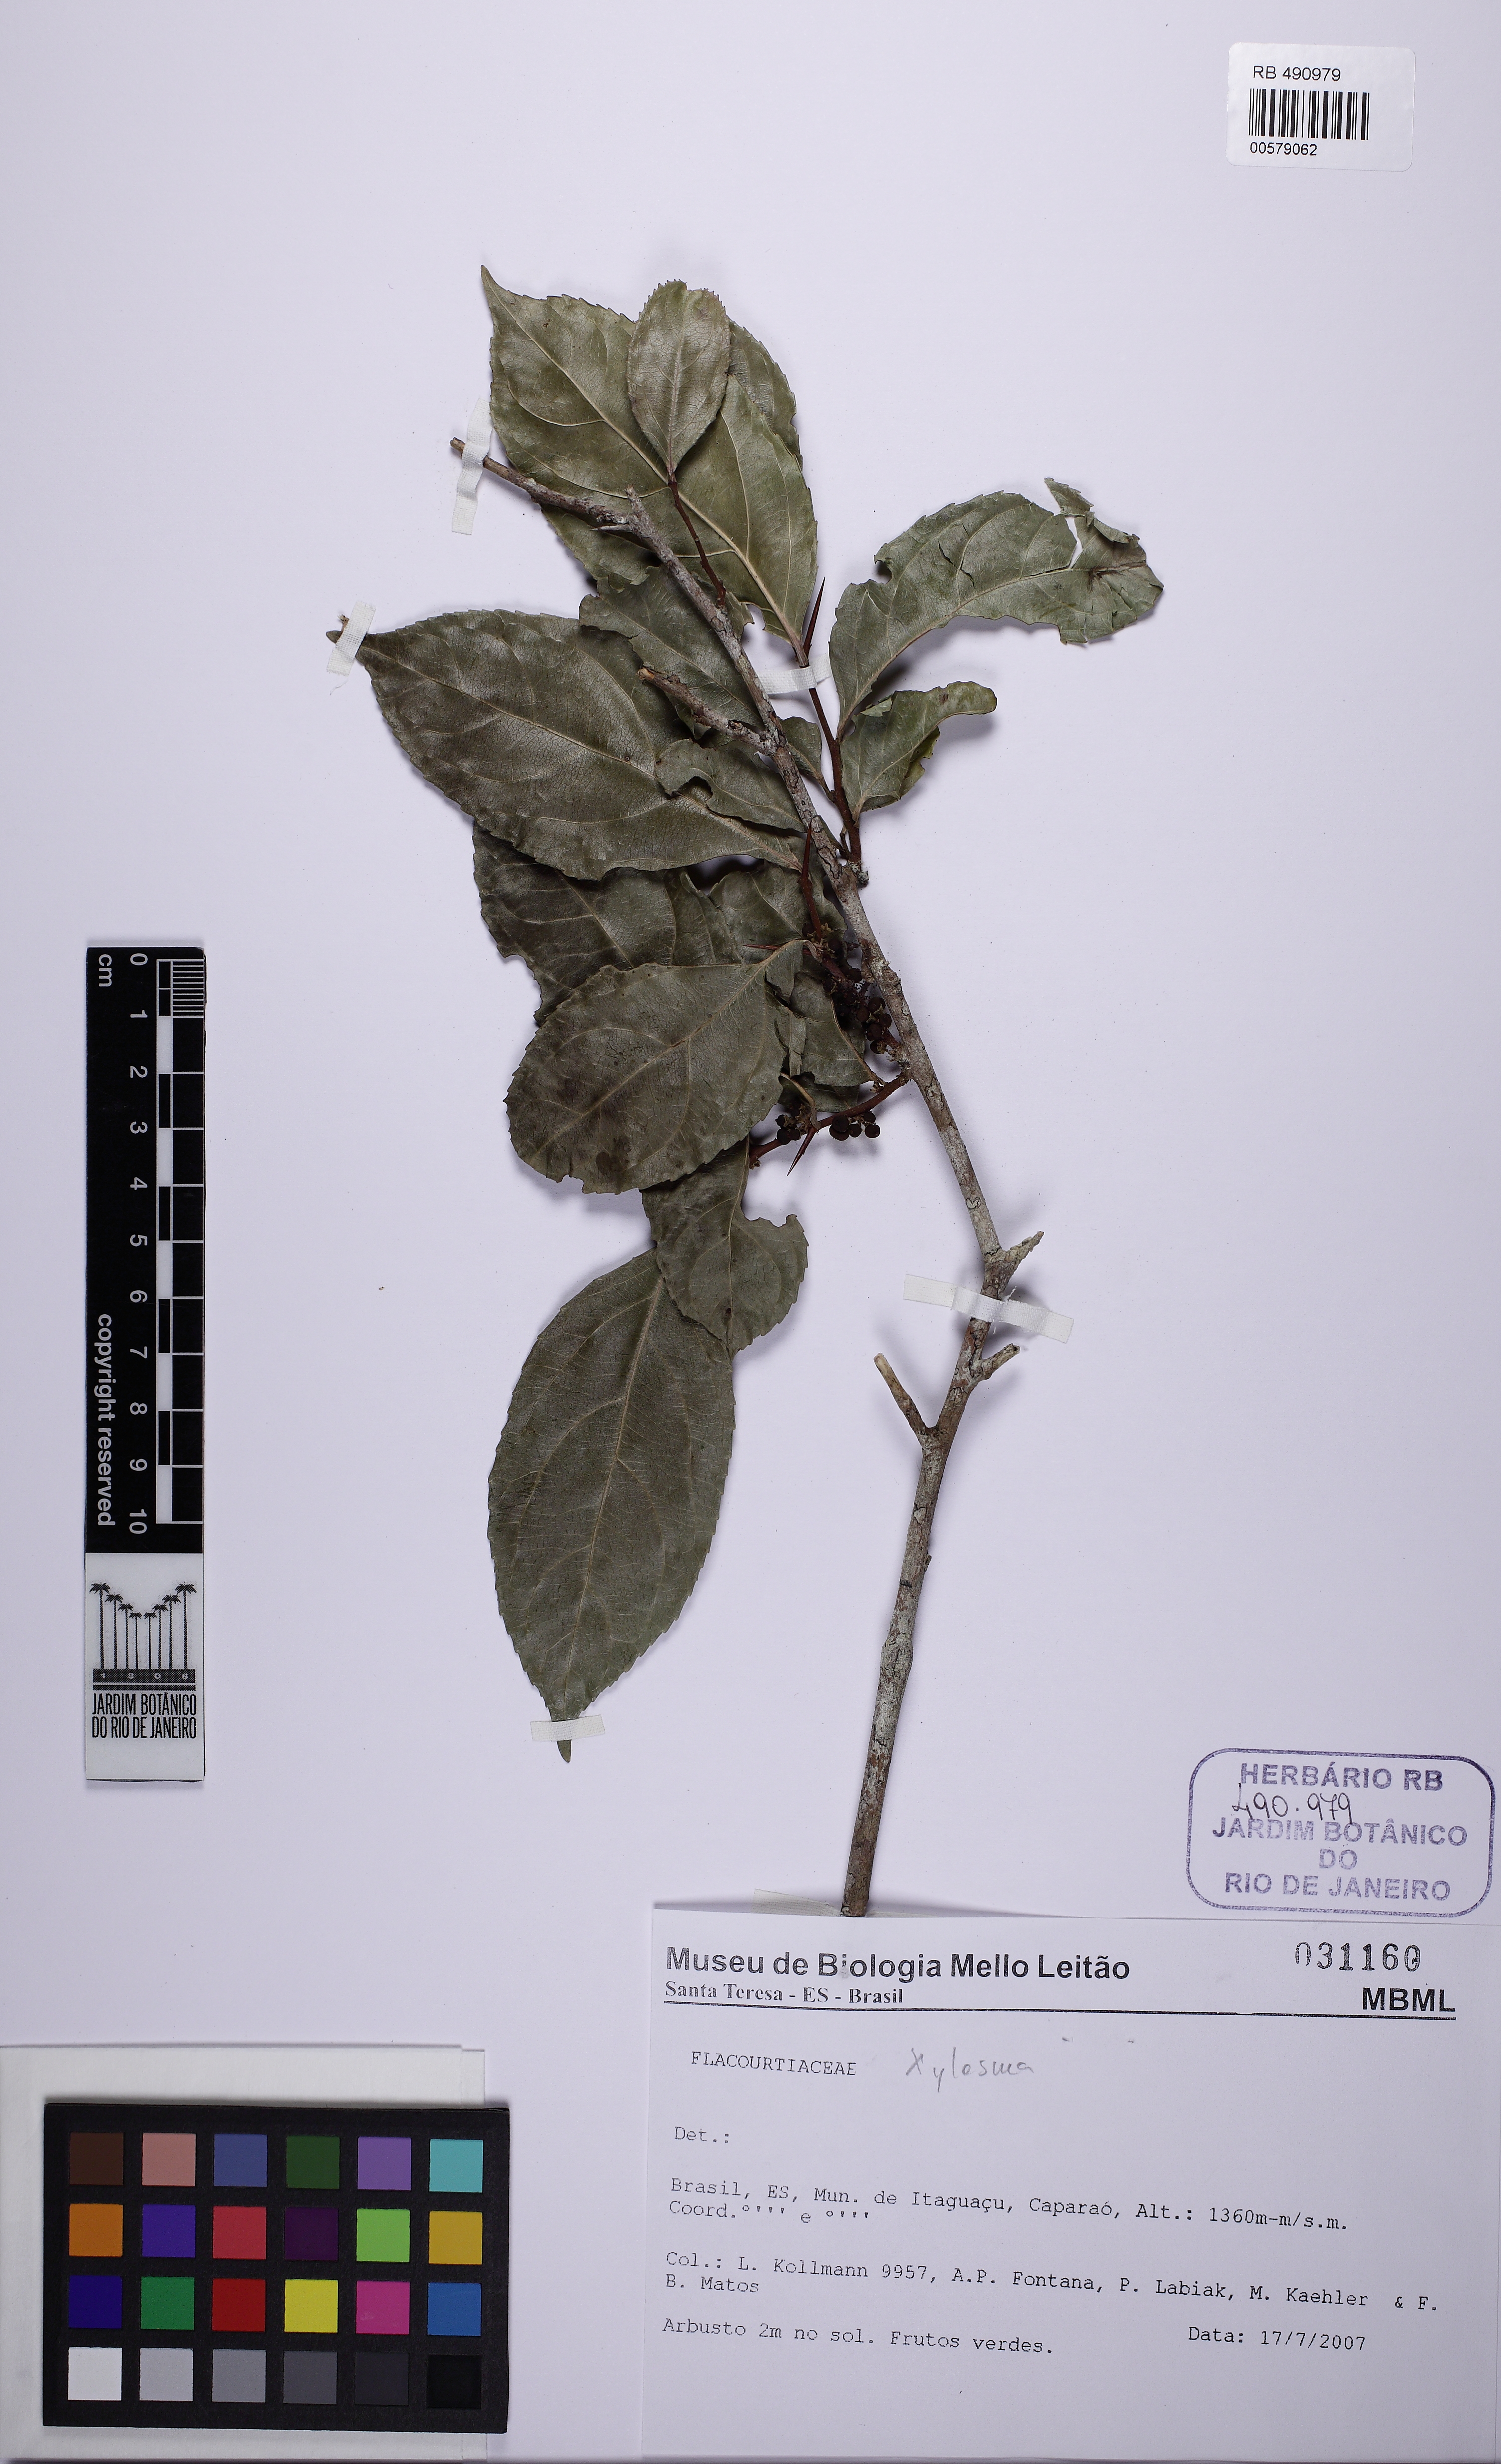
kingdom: Plantae
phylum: Tracheophyta
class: Magnoliopsida
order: Malpighiales
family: Salicaceae
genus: Xylosma
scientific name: Xylosma benthamii
